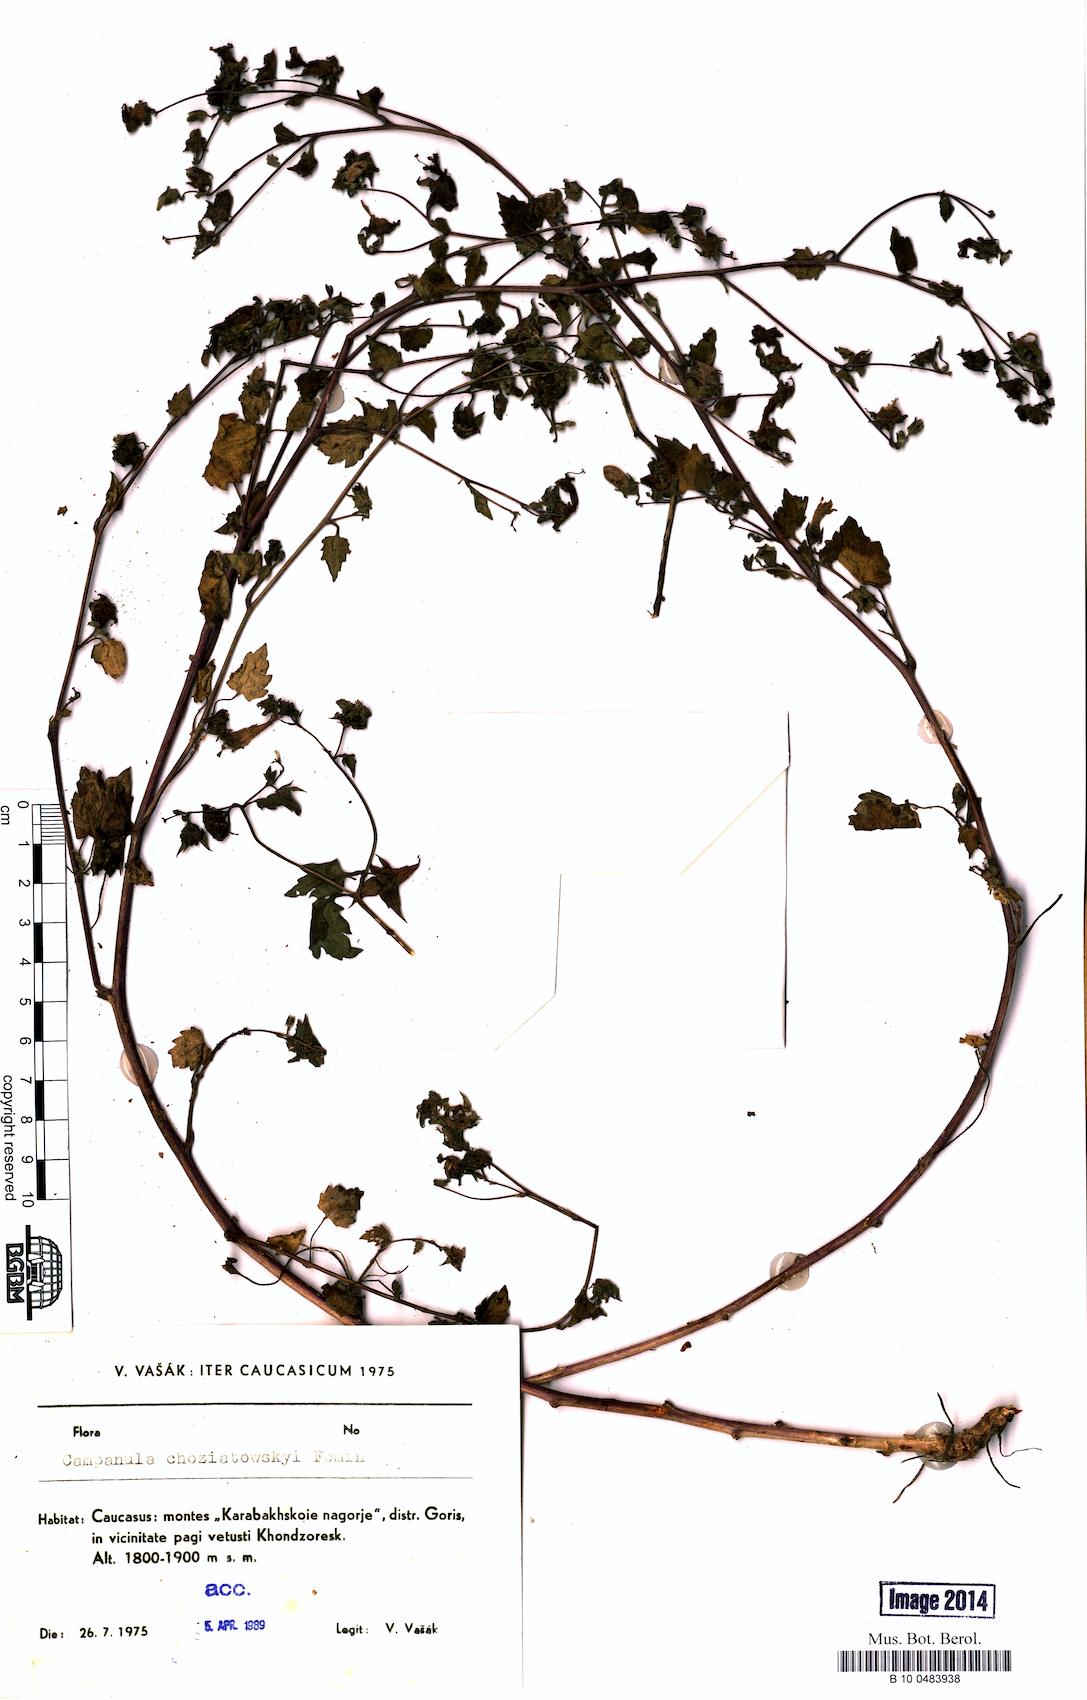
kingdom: Plantae
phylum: Tracheophyta
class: Magnoliopsida
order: Asterales
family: Campanulaceae
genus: Campanula
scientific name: Campanula armena
